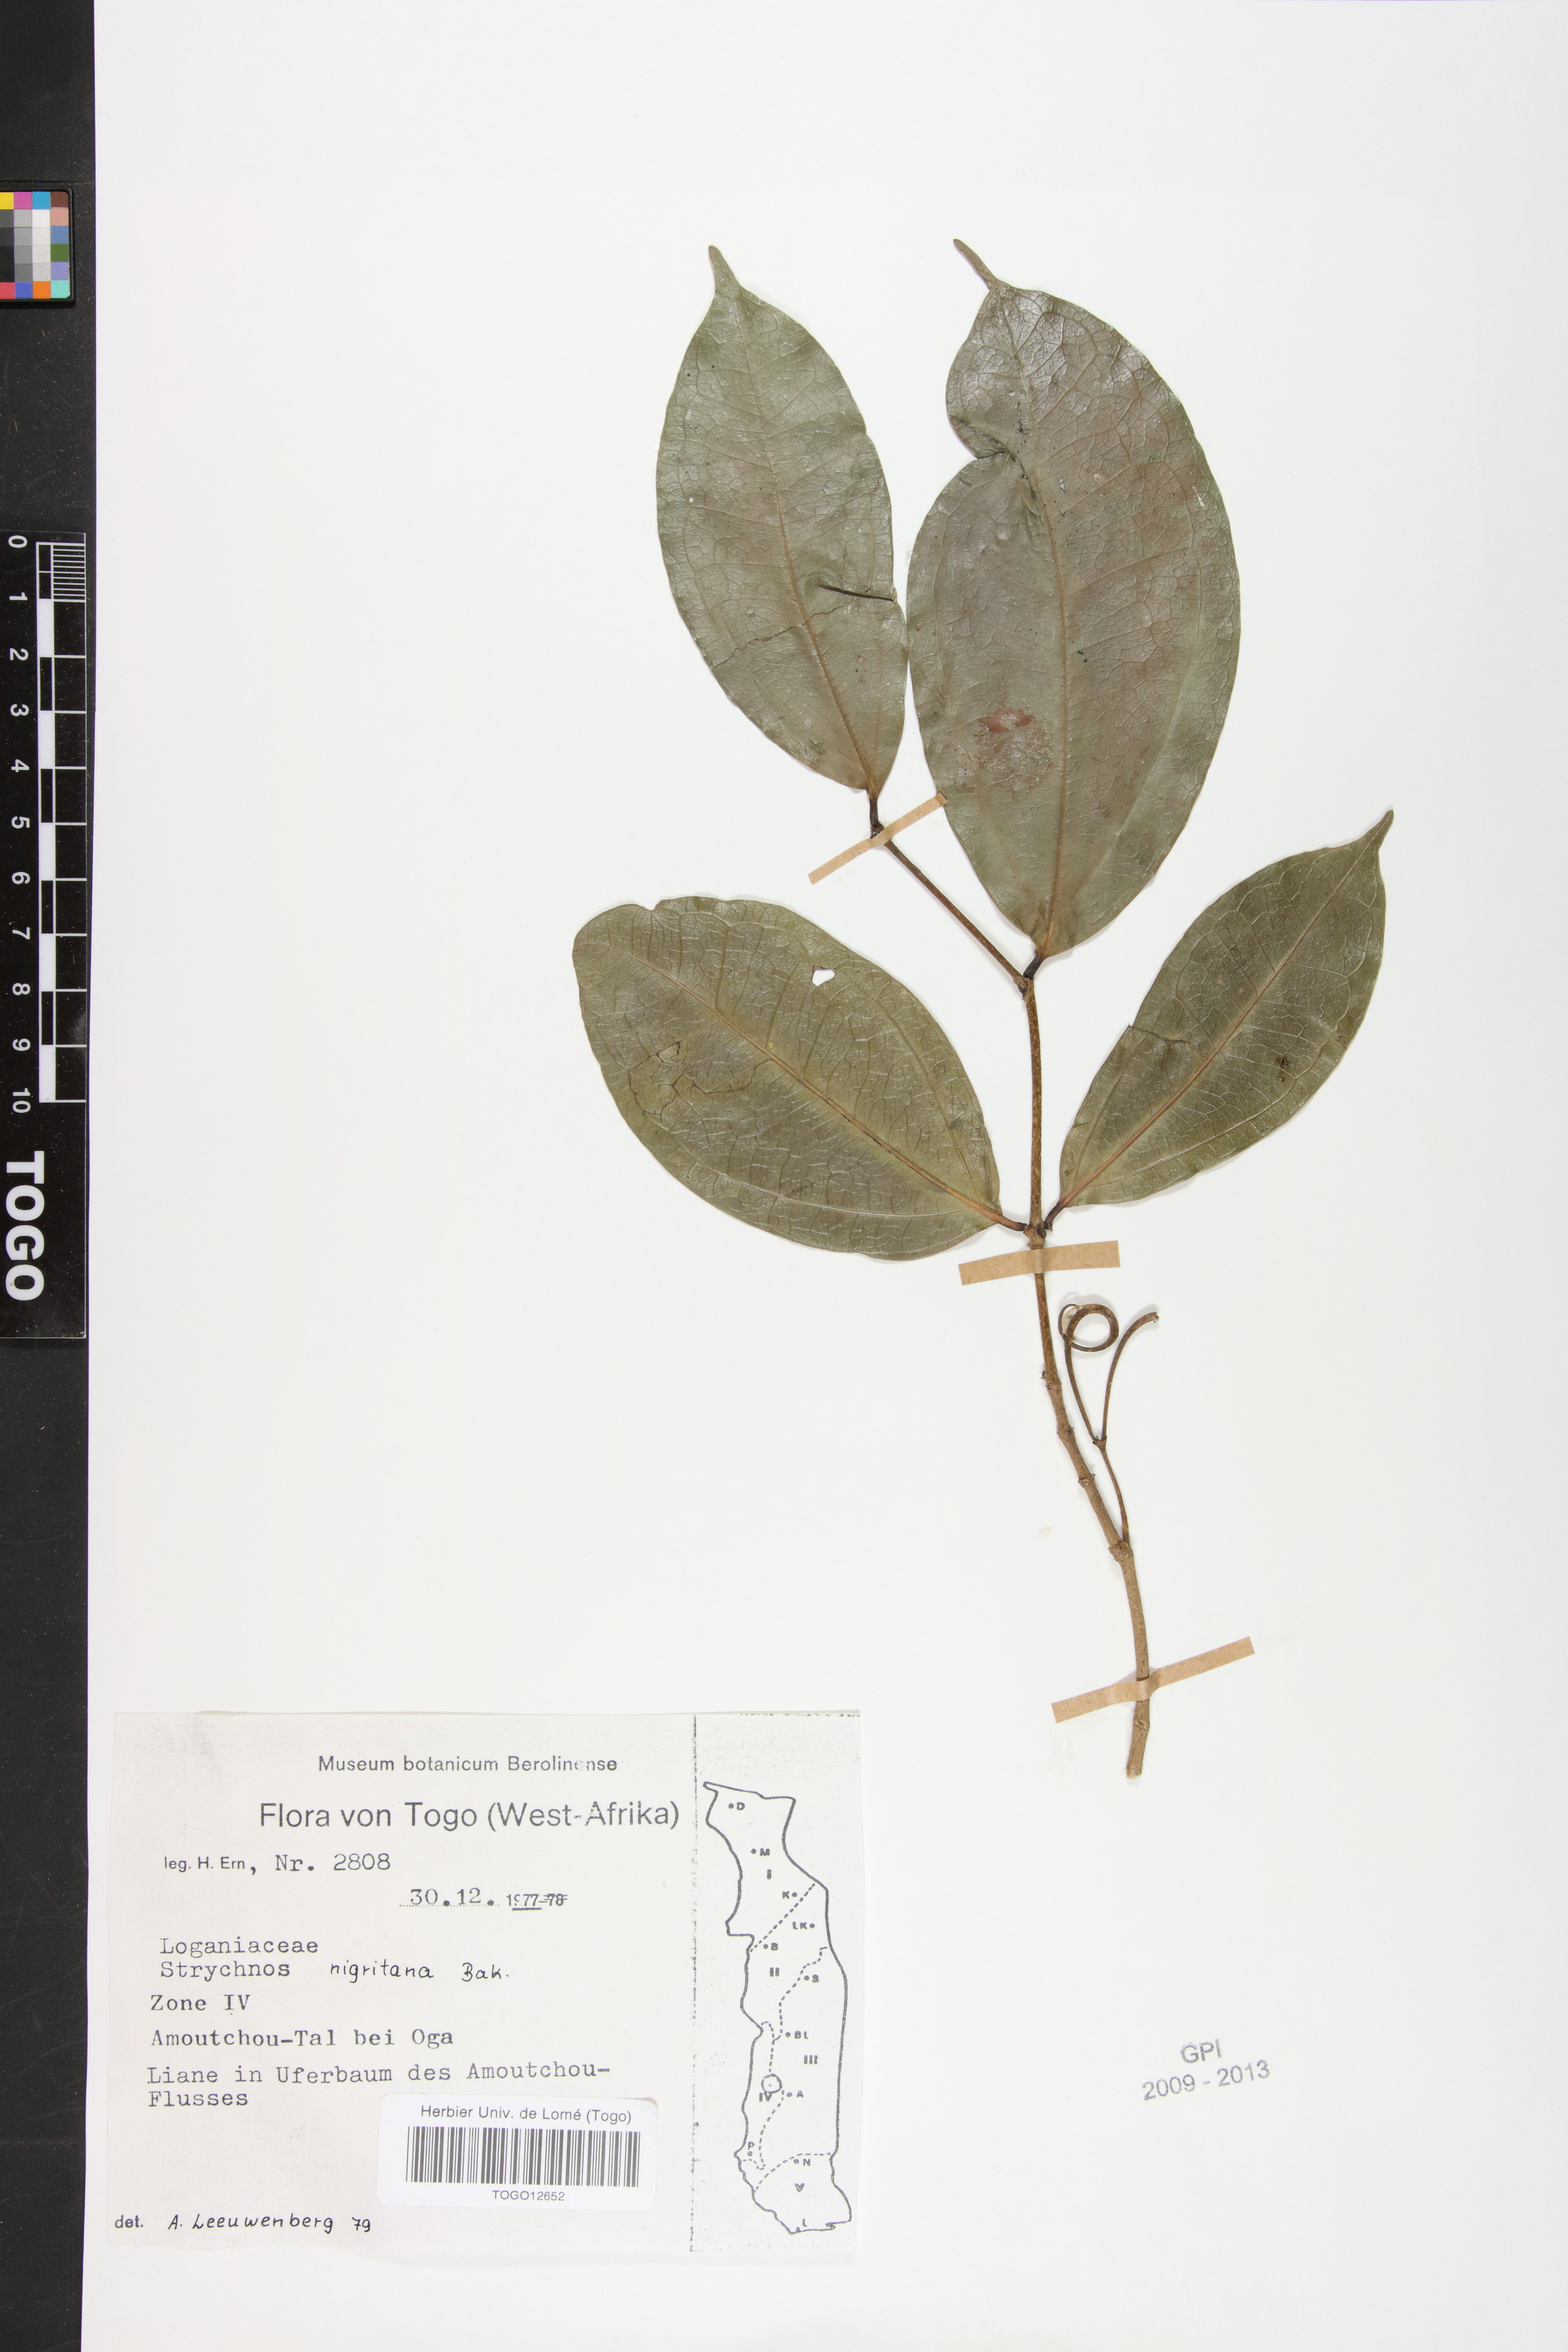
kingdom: Plantae
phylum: Tracheophyta
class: Magnoliopsida
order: Gentianales
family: Loganiaceae
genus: Strychnos
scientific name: Strychnos nigritana
